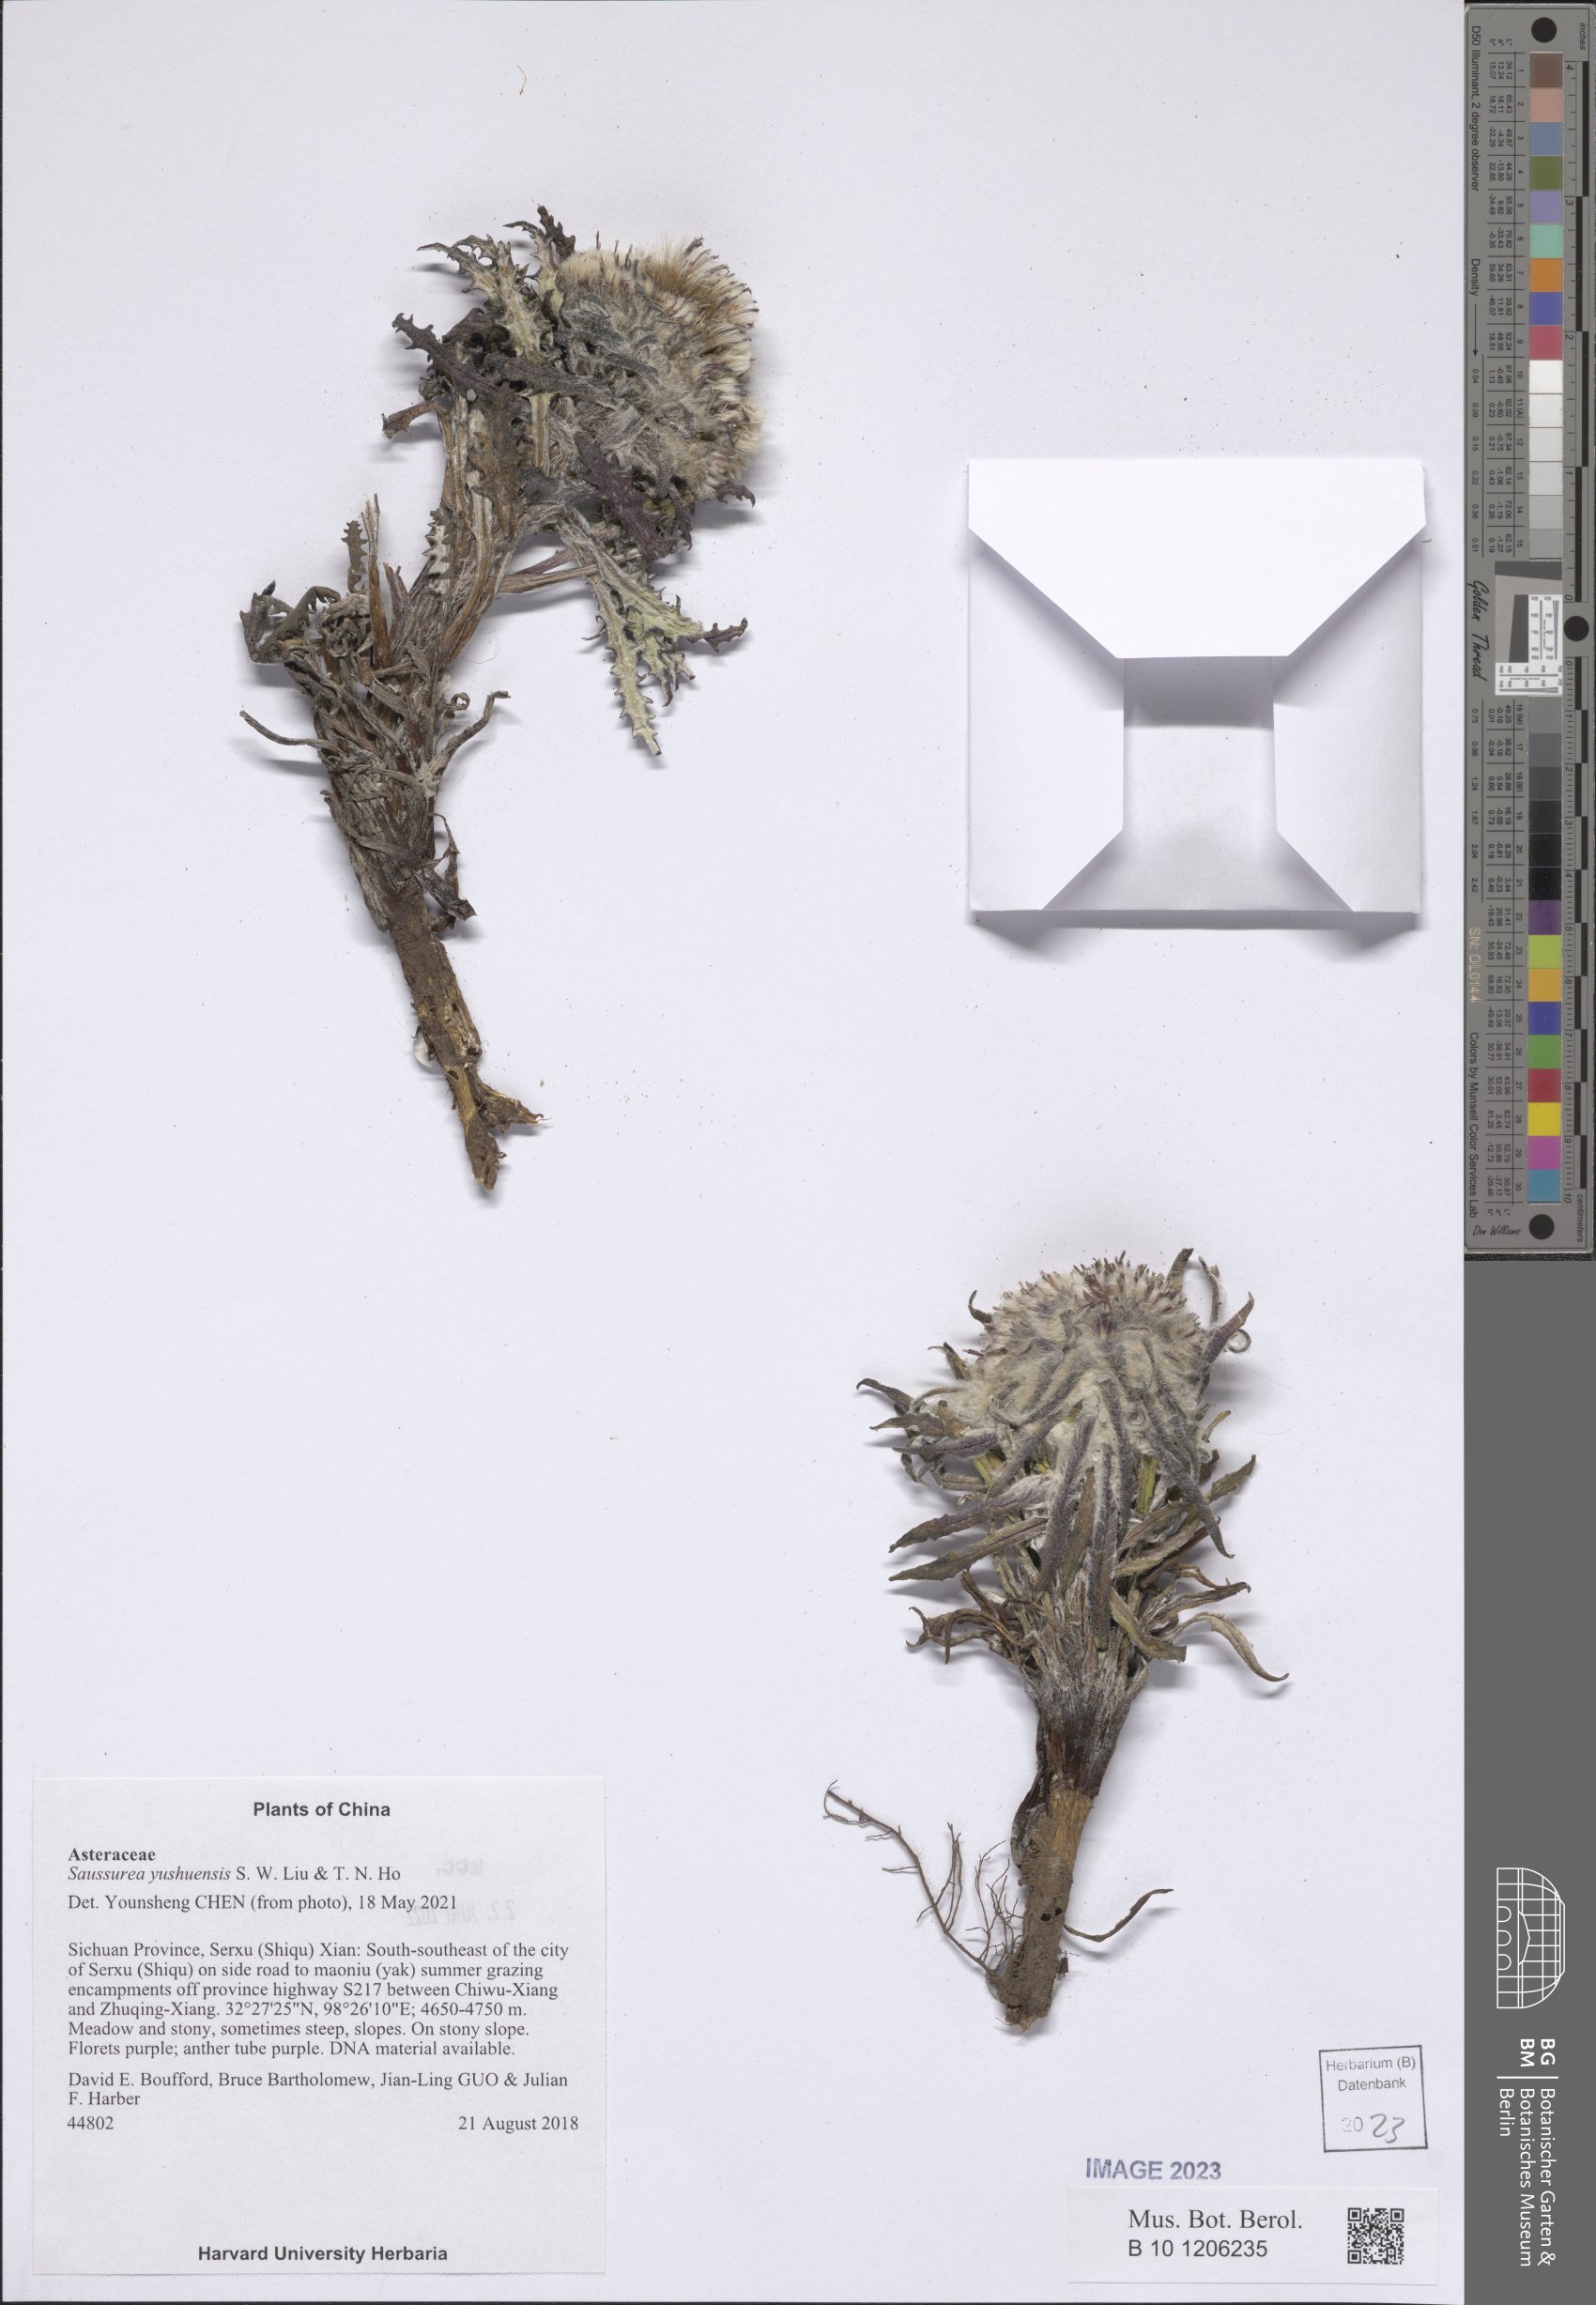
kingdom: Plantae
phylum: Tracheophyta
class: Magnoliopsida
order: Asterales
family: Asteraceae
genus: Saussurea
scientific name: Saussurea simpsoniana
